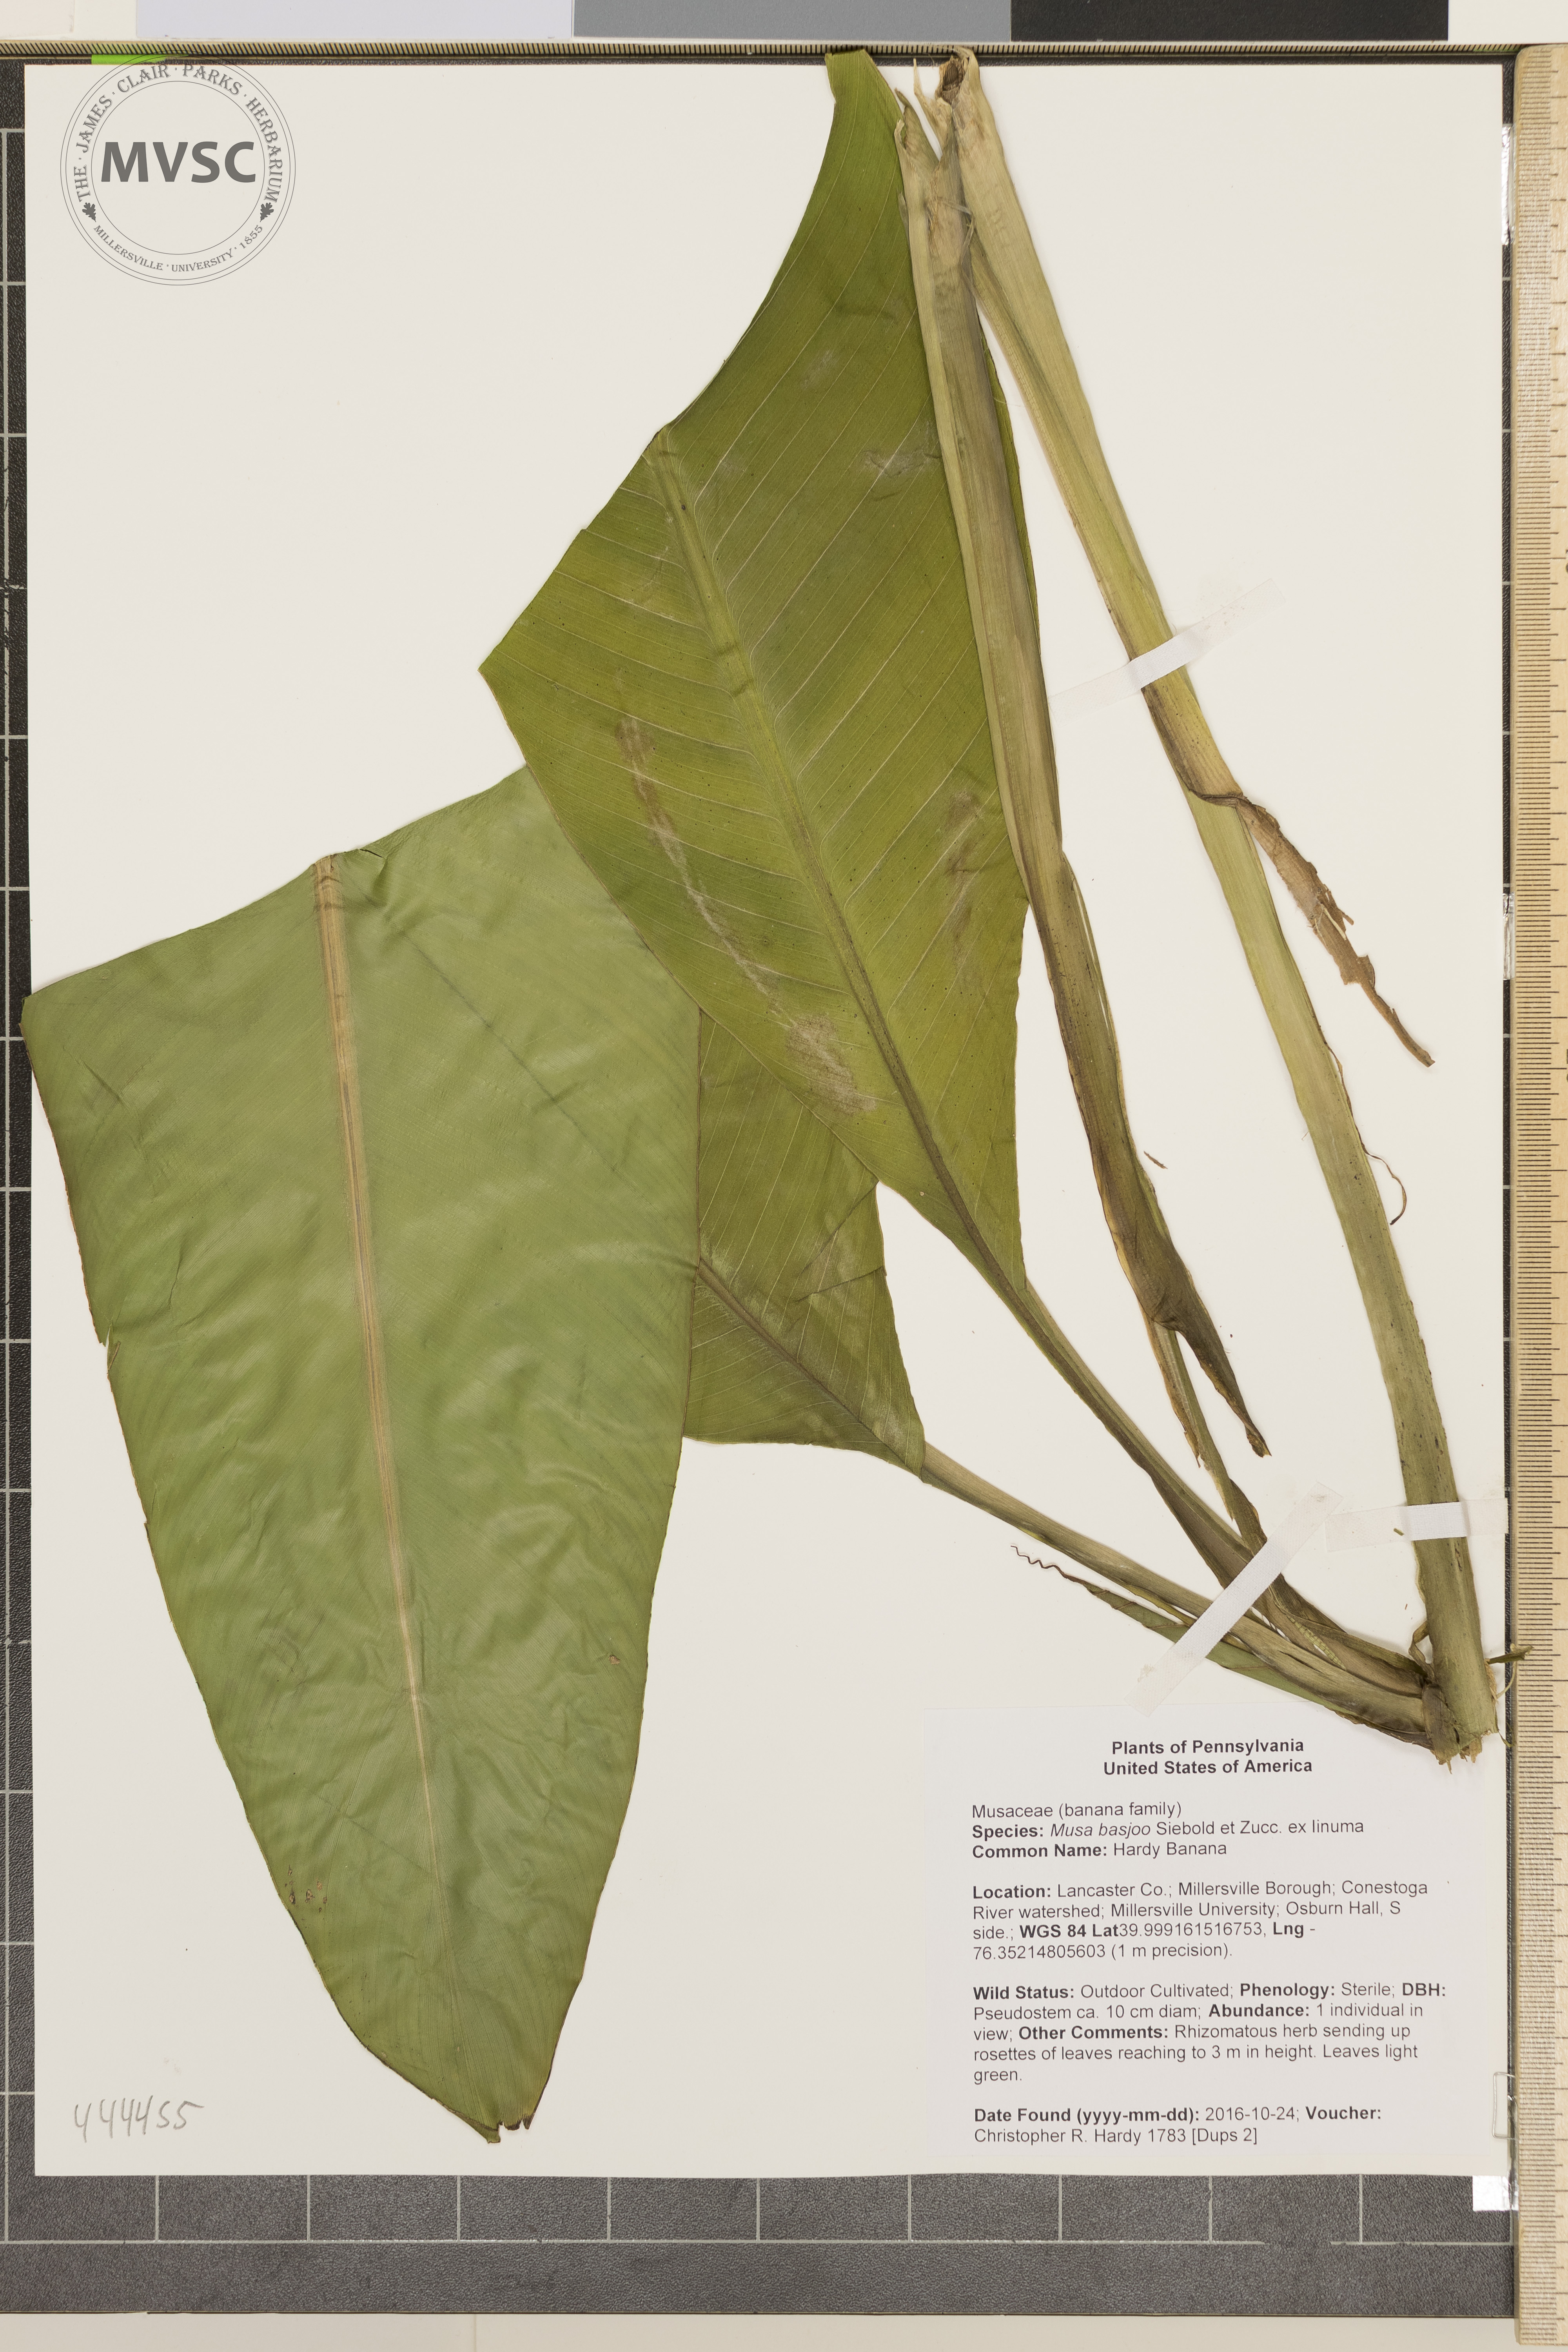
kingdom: Plantae
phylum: Tracheophyta
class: Liliopsida
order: Zingiberales
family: Musaceae
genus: Musa
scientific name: Musa basjoo
